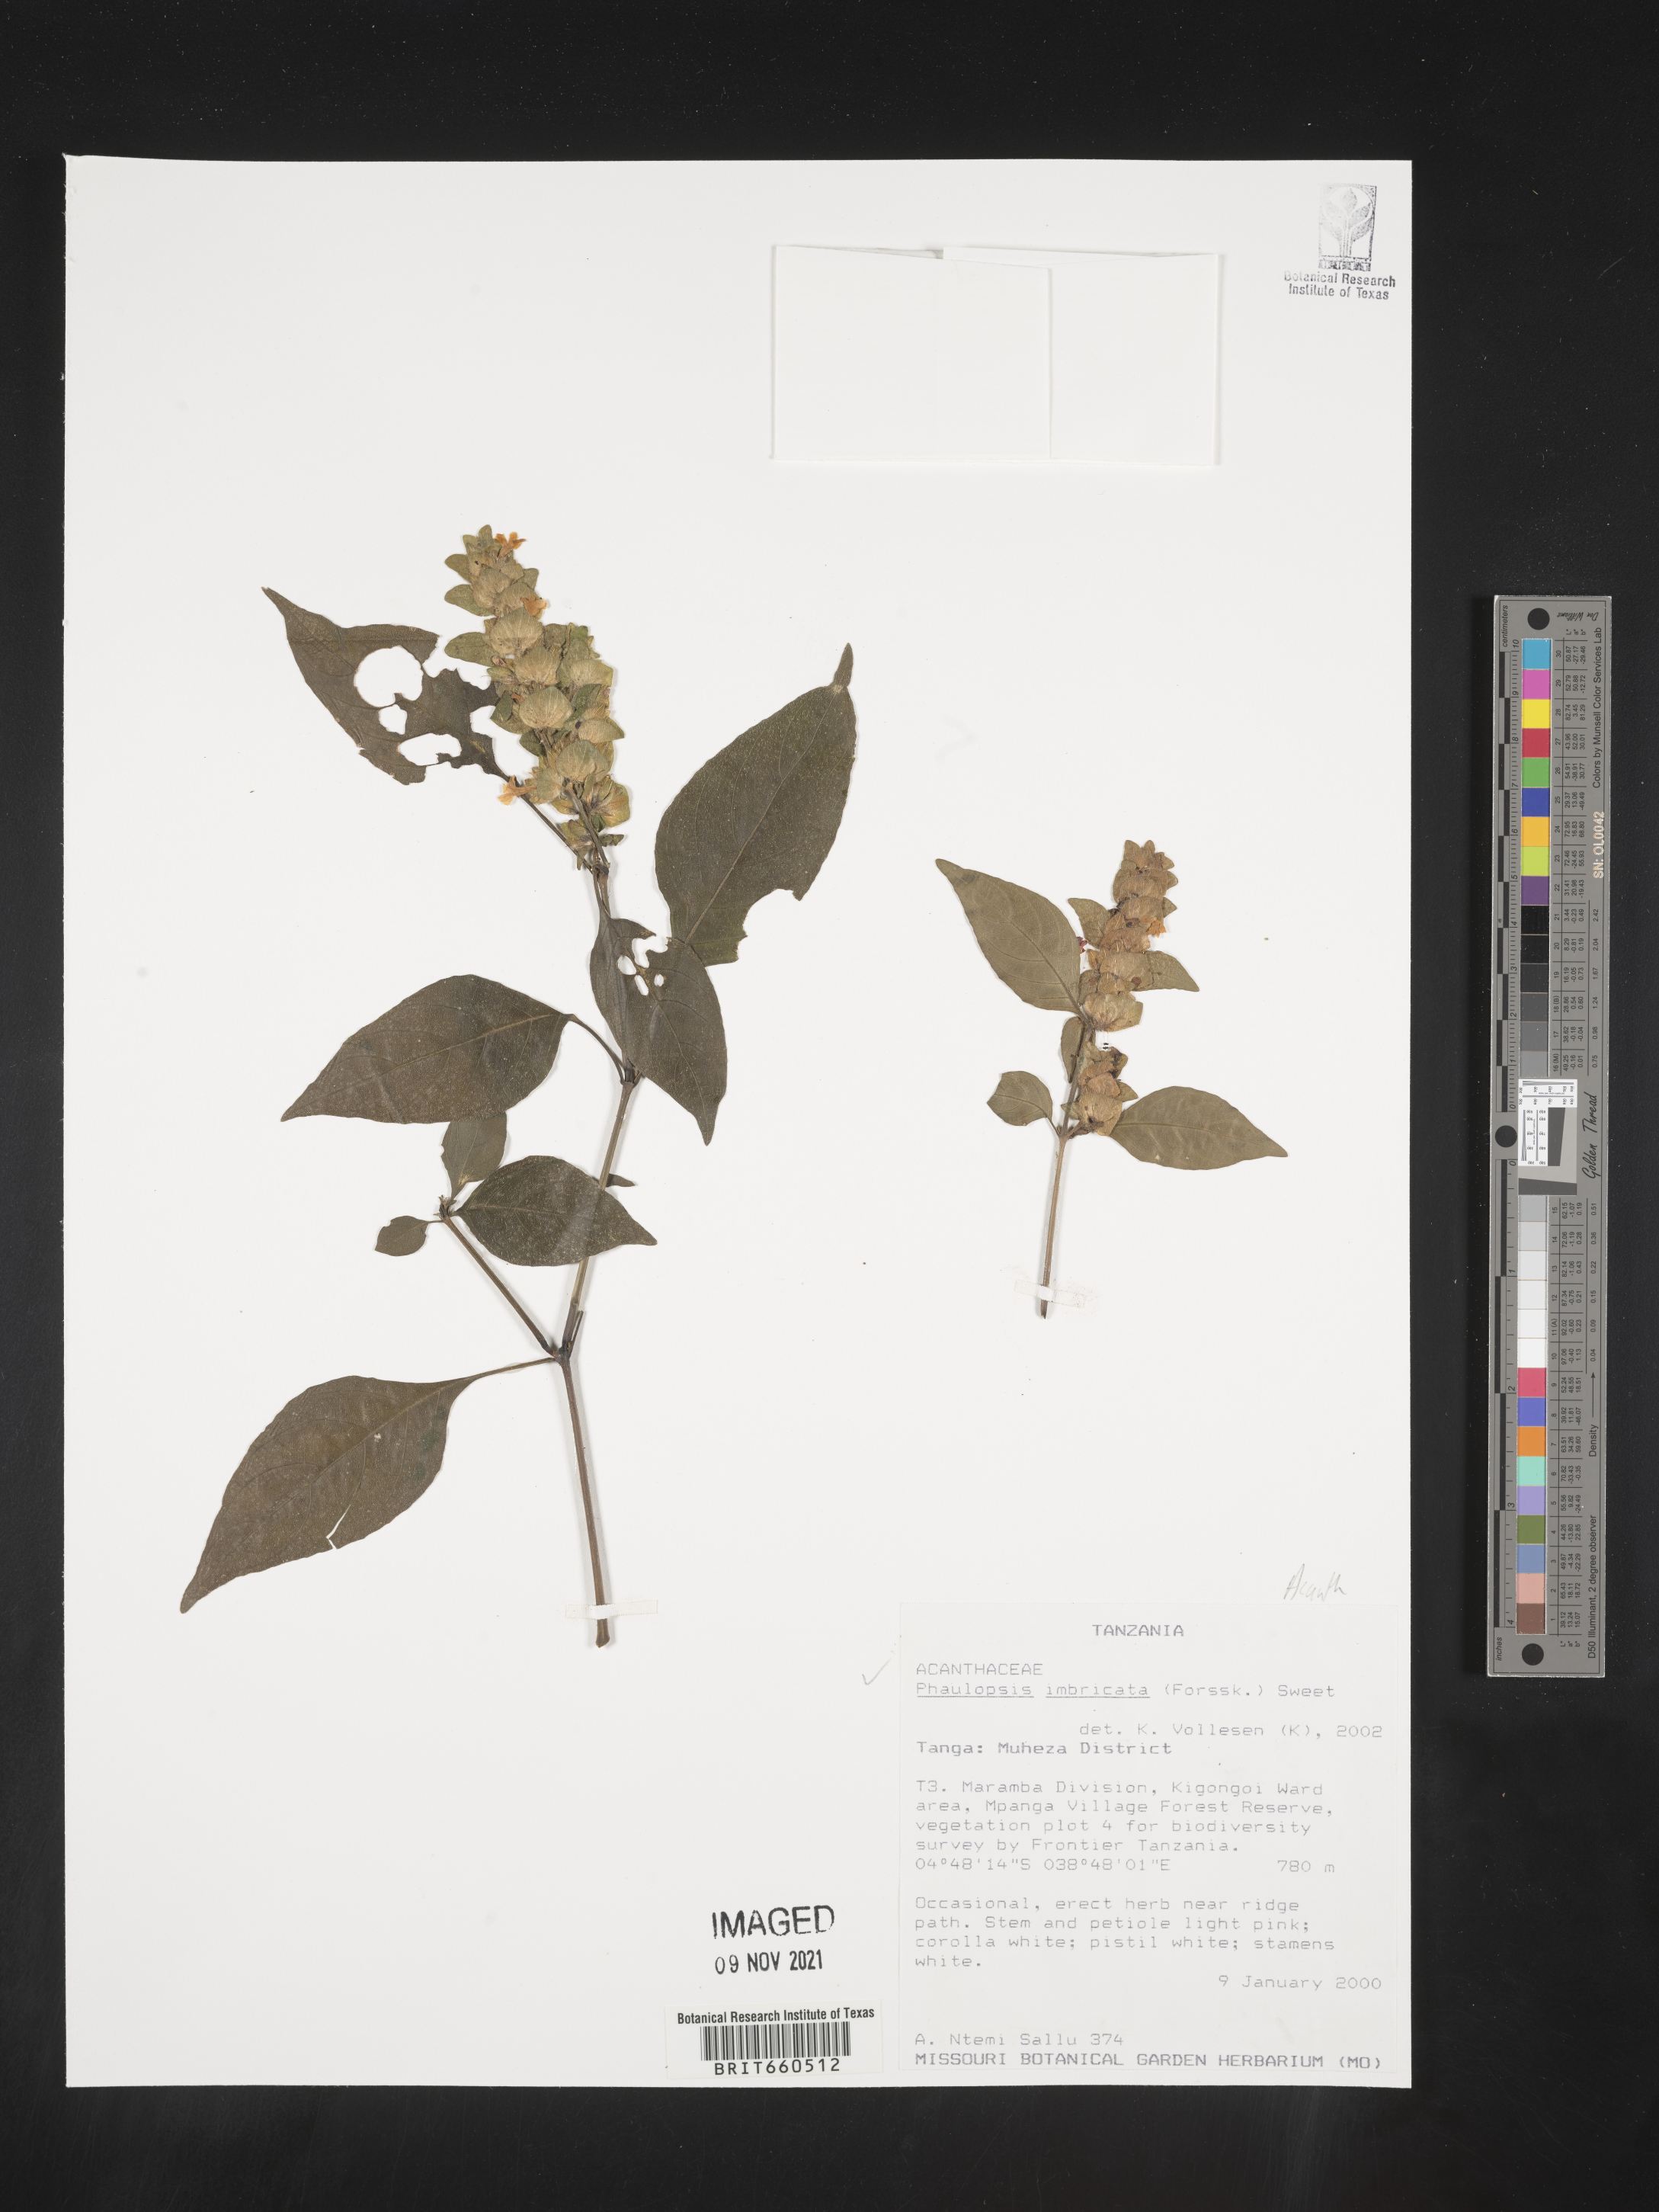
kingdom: Plantae
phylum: Tracheophyta
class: Magnoliopsida
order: Lamiales
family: Acanthaceae
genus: Phaulopsis
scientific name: Phaulopsis
